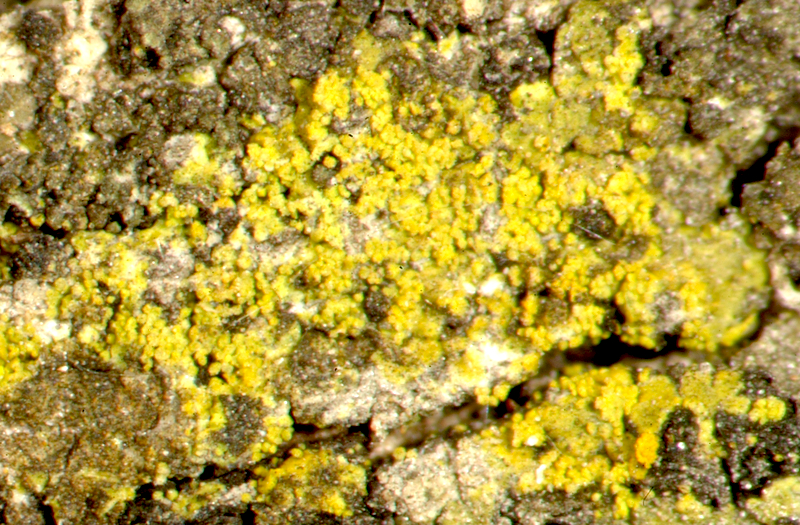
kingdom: Fungi
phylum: Ascomycota
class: Candelariomycetes
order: Candelariales
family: Candelariaceae
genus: Candelaria
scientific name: Candelaria concolor
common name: Candleflame lichen
